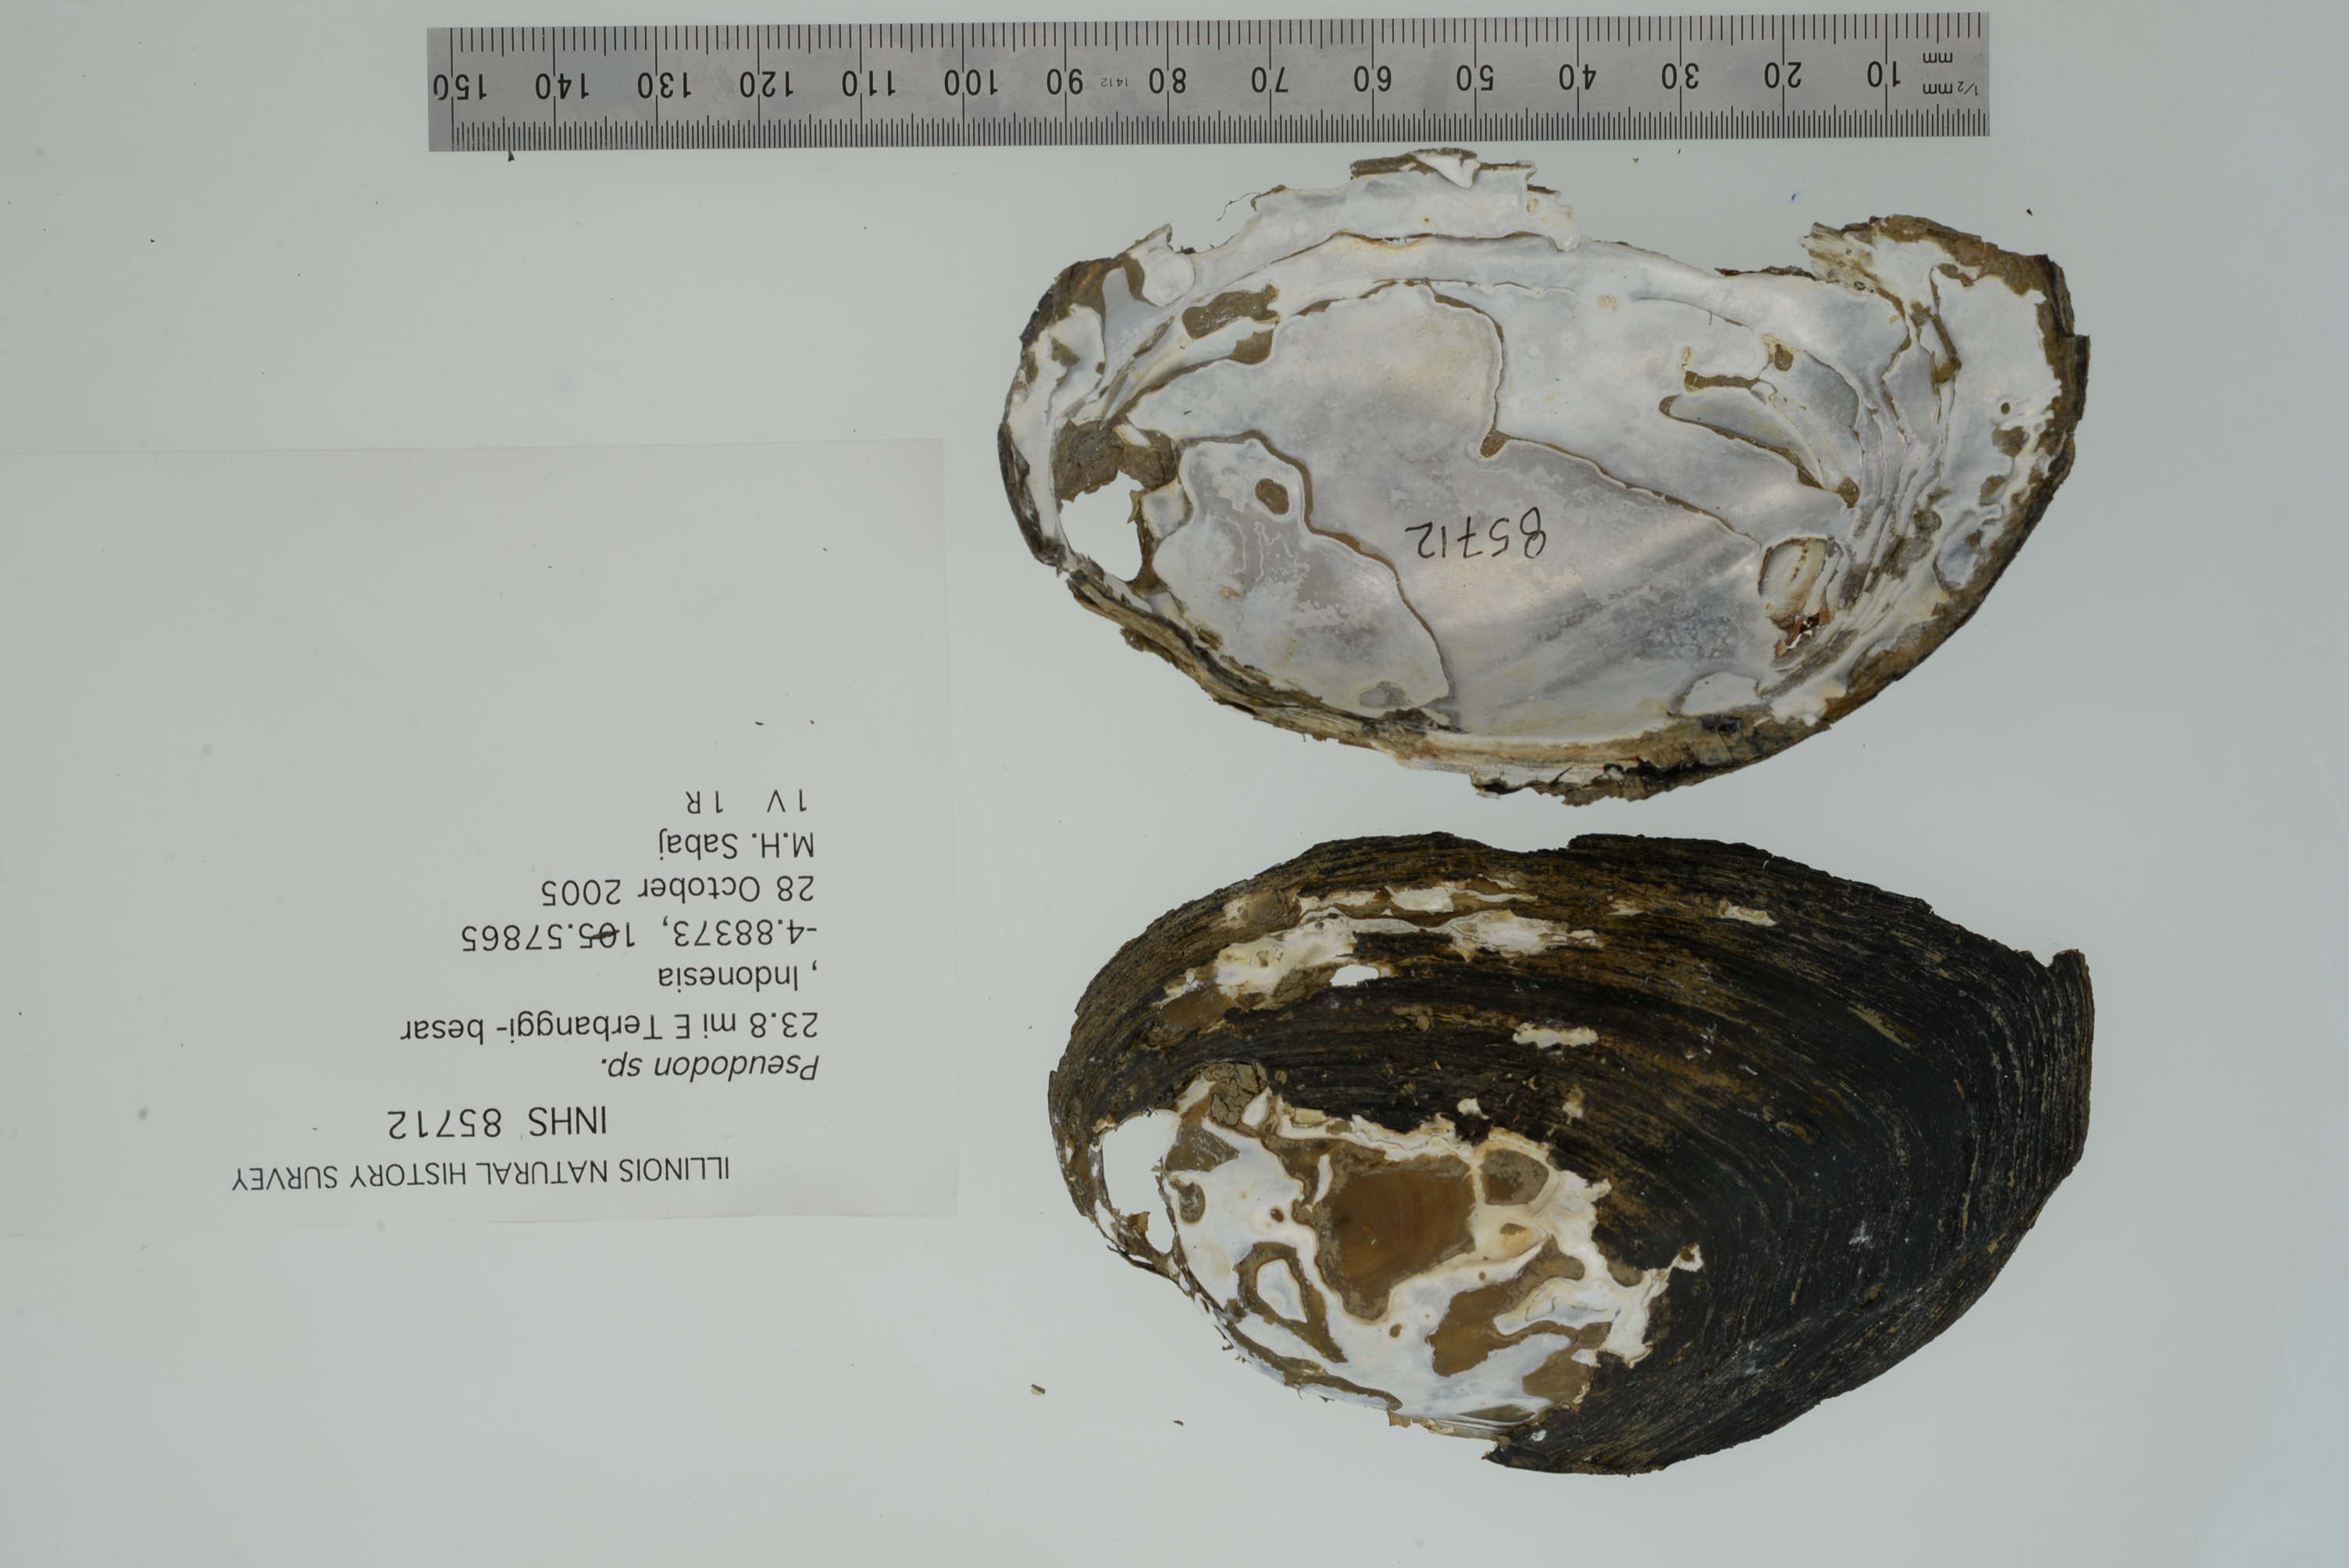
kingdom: Animalia
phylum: Mollusca
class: Bivalvia
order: Unionida
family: Unionidae
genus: Monodontina
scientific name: Monodontina vondembuschiana
